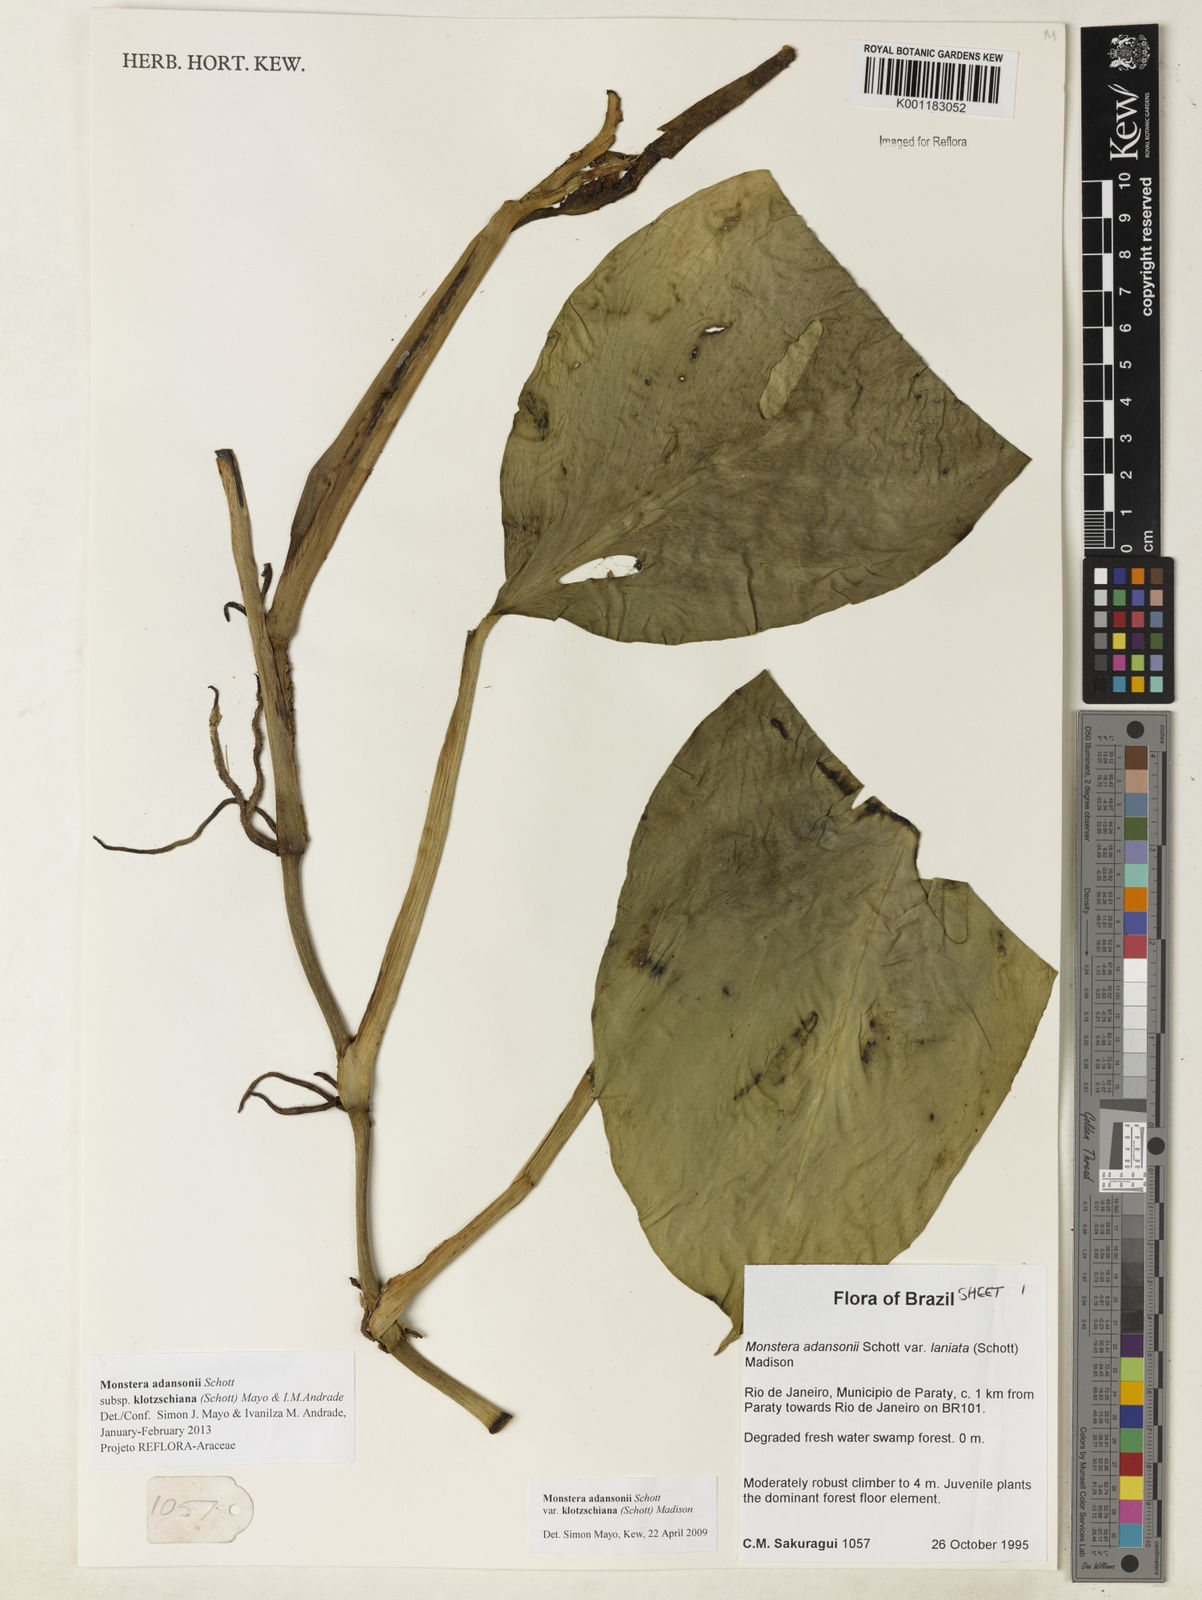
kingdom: Plantae
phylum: Tracheophyta
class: Liliopsida
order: Alismatales
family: Araceae
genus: Monstera
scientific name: Monstera adansonii
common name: Tarovine
